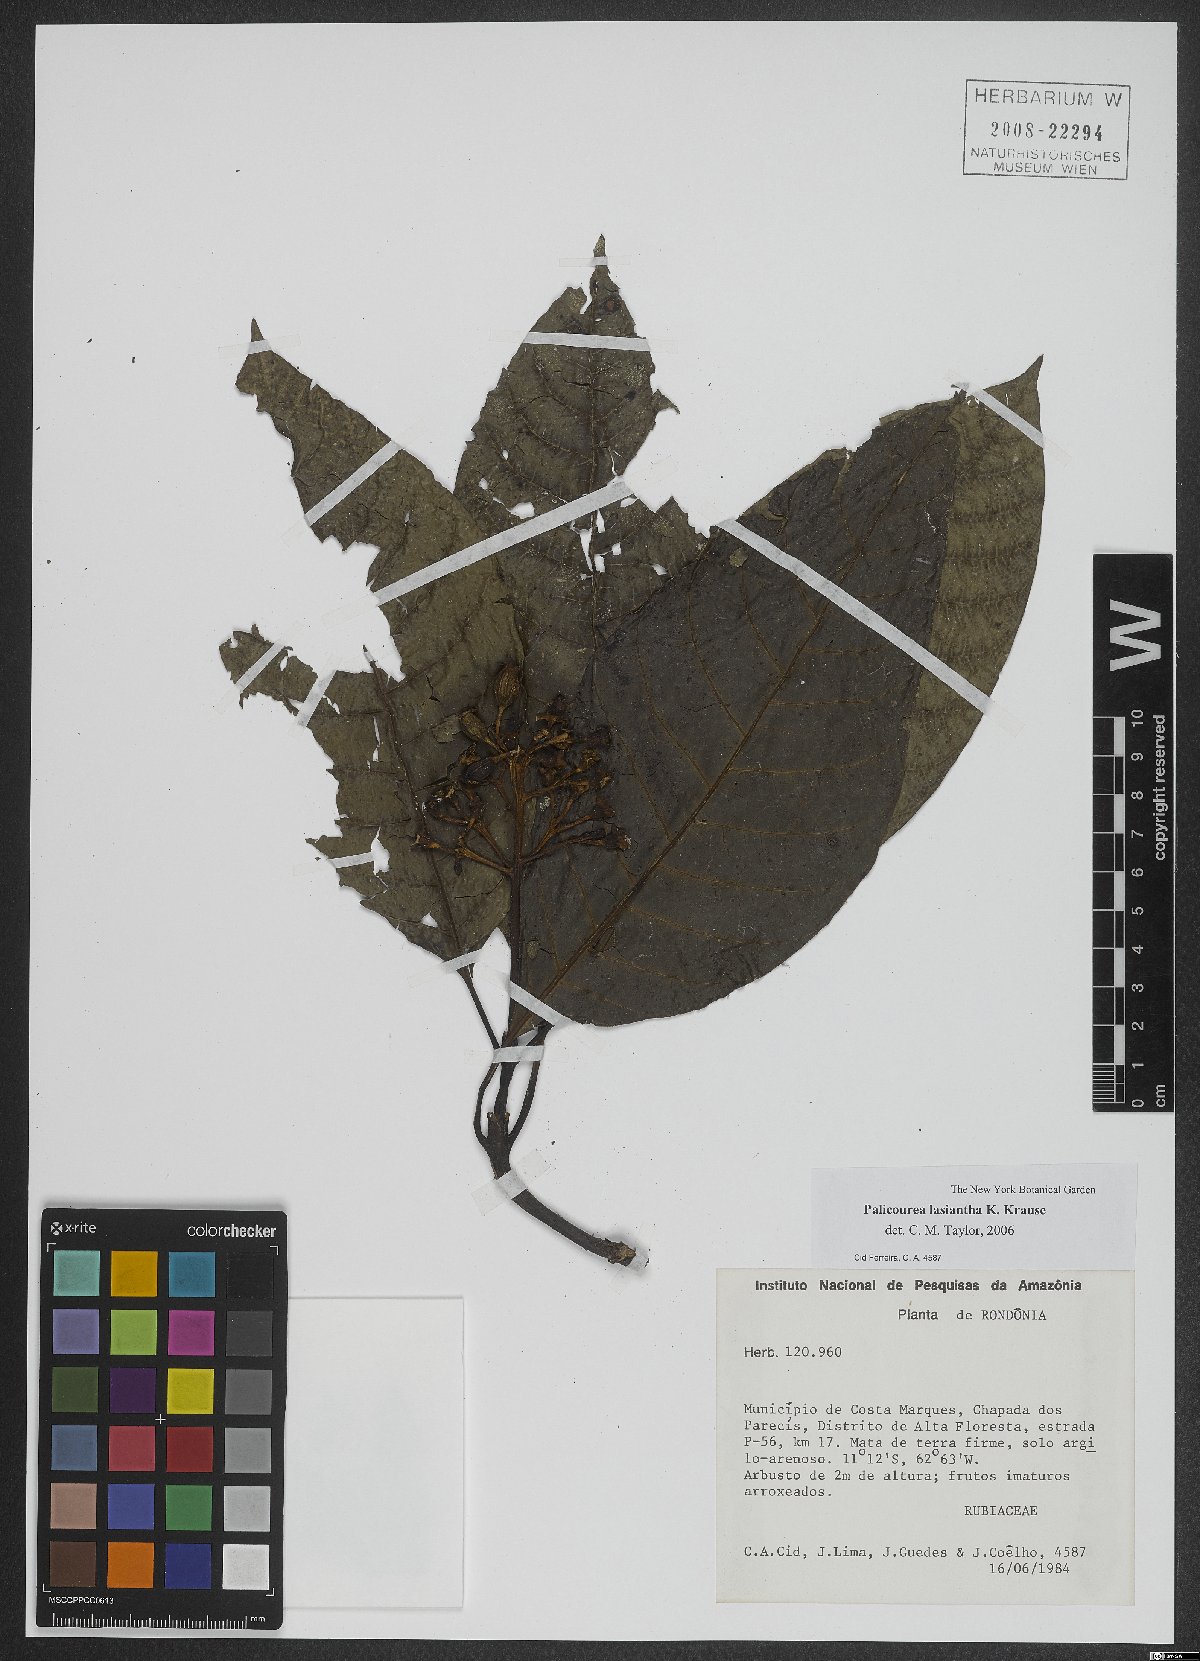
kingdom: Plantae
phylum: Tracheophyta
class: Magnoliopsida
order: Gentianales
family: Rubiaceae
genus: Palicourea
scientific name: Palicourea lasiantha
